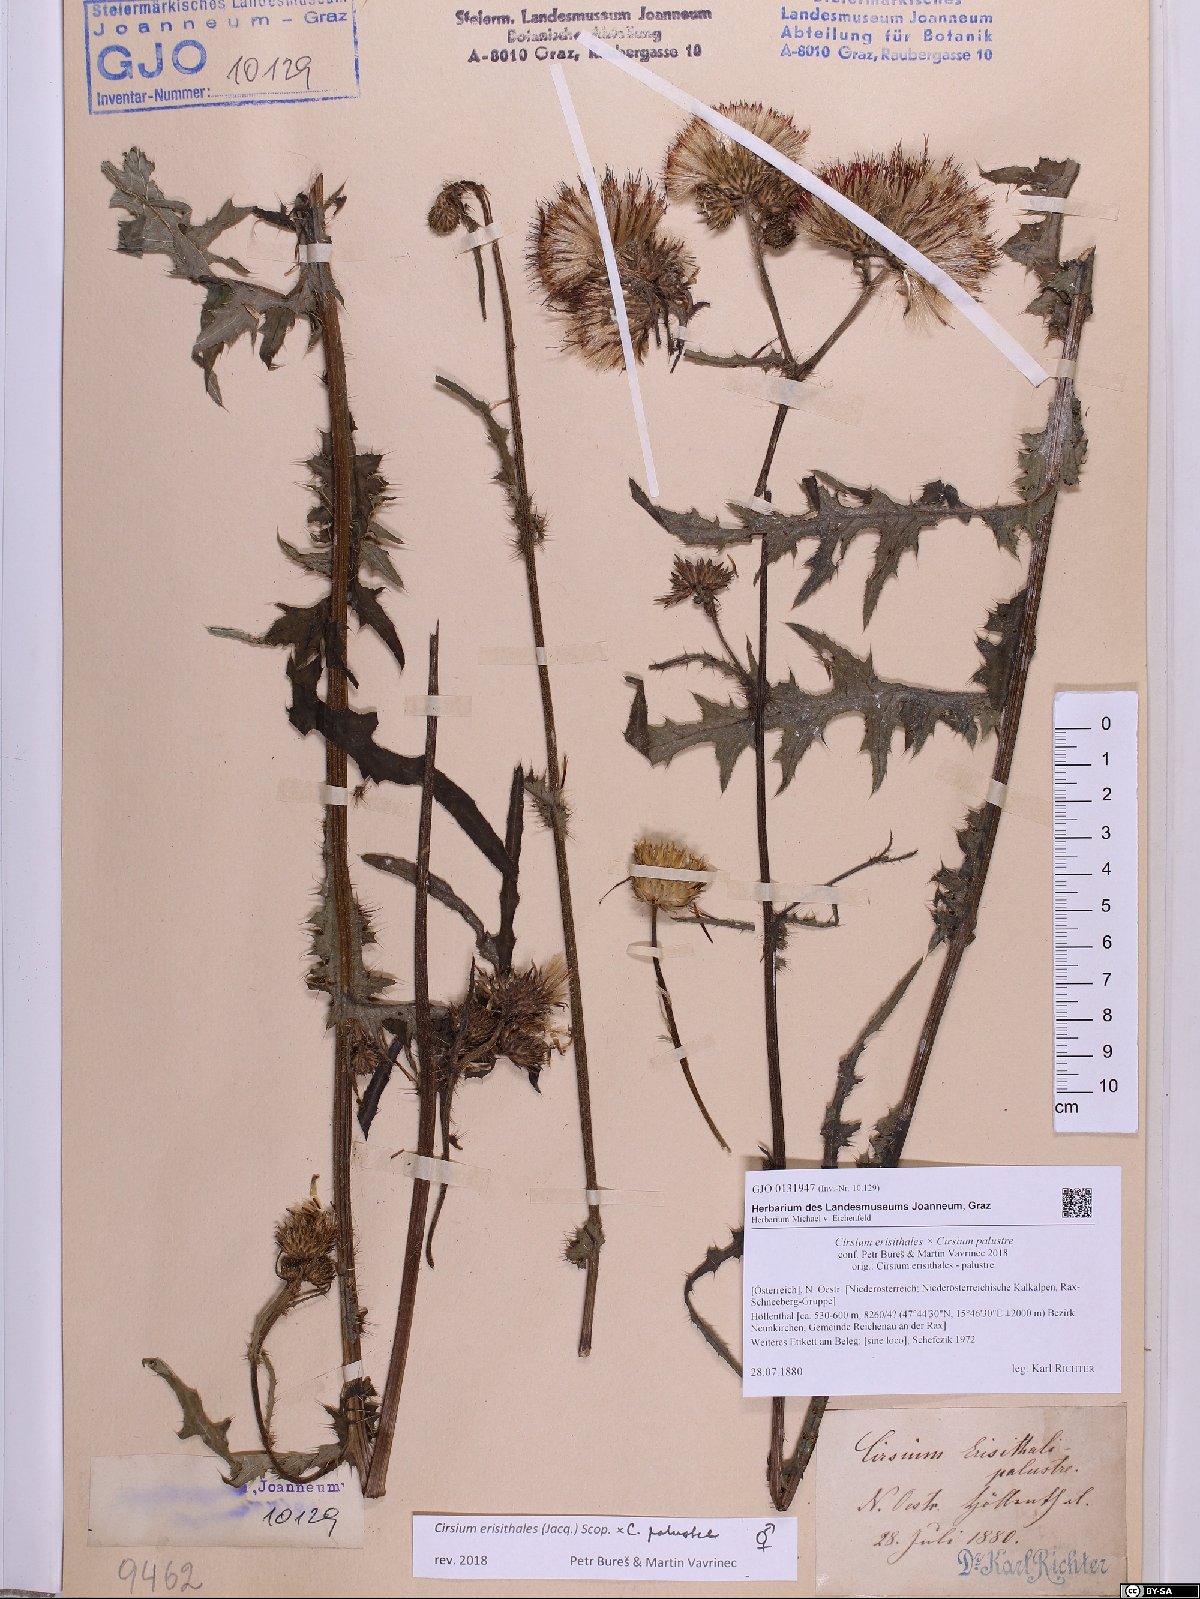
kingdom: Plantae
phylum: Tracheophyta
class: Magnoliopsida
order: Asterales
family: Asteraceae
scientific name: Asteraceae
